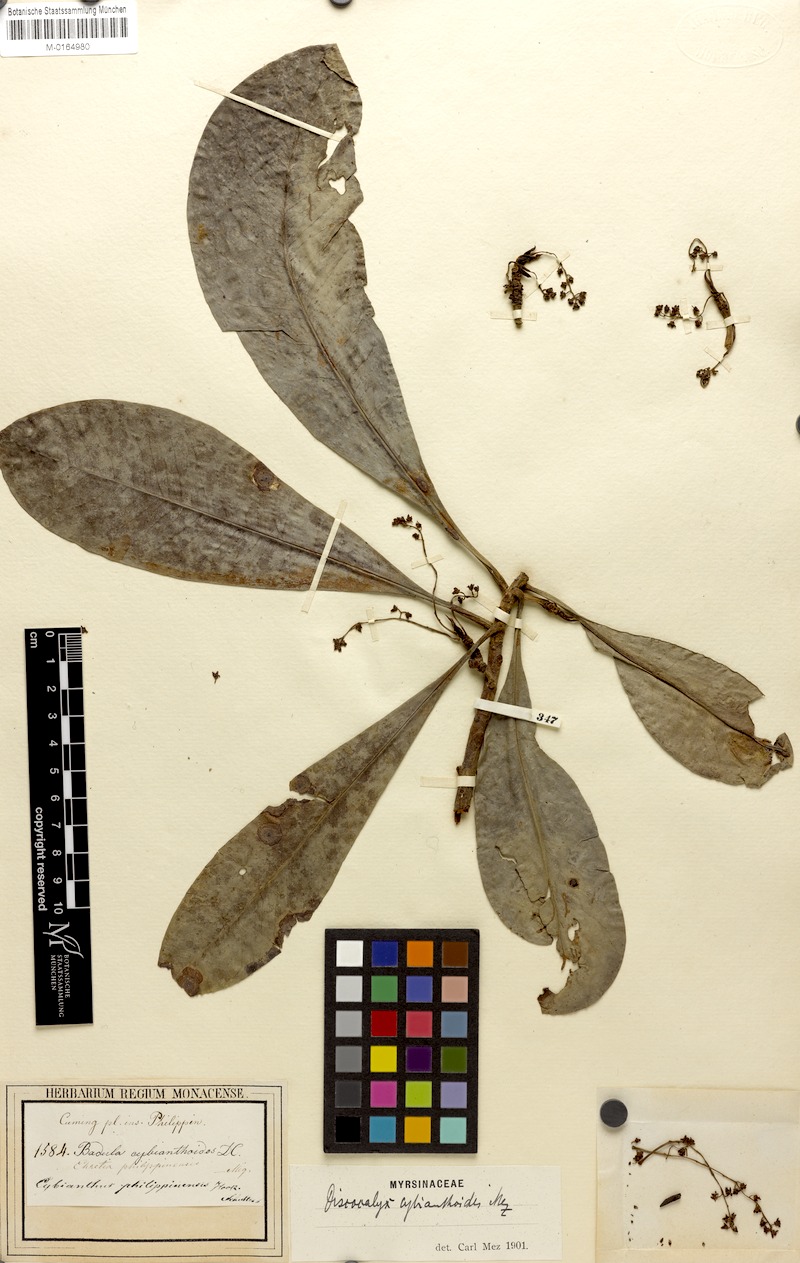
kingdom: Plantae
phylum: Tracheophyta
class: Magnoliopsida
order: Ericales
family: Primulaceae
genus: Discocalyx
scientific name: Discocalyx cybianthoides
